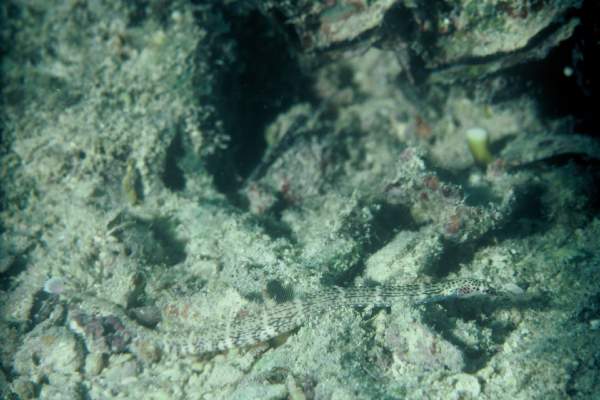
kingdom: Animalia
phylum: Chordata
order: Syngnathiformes
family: Syngnathidae
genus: Corythoichthys
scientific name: Corythoichthys intestinalis
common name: Australian banded pipefish
